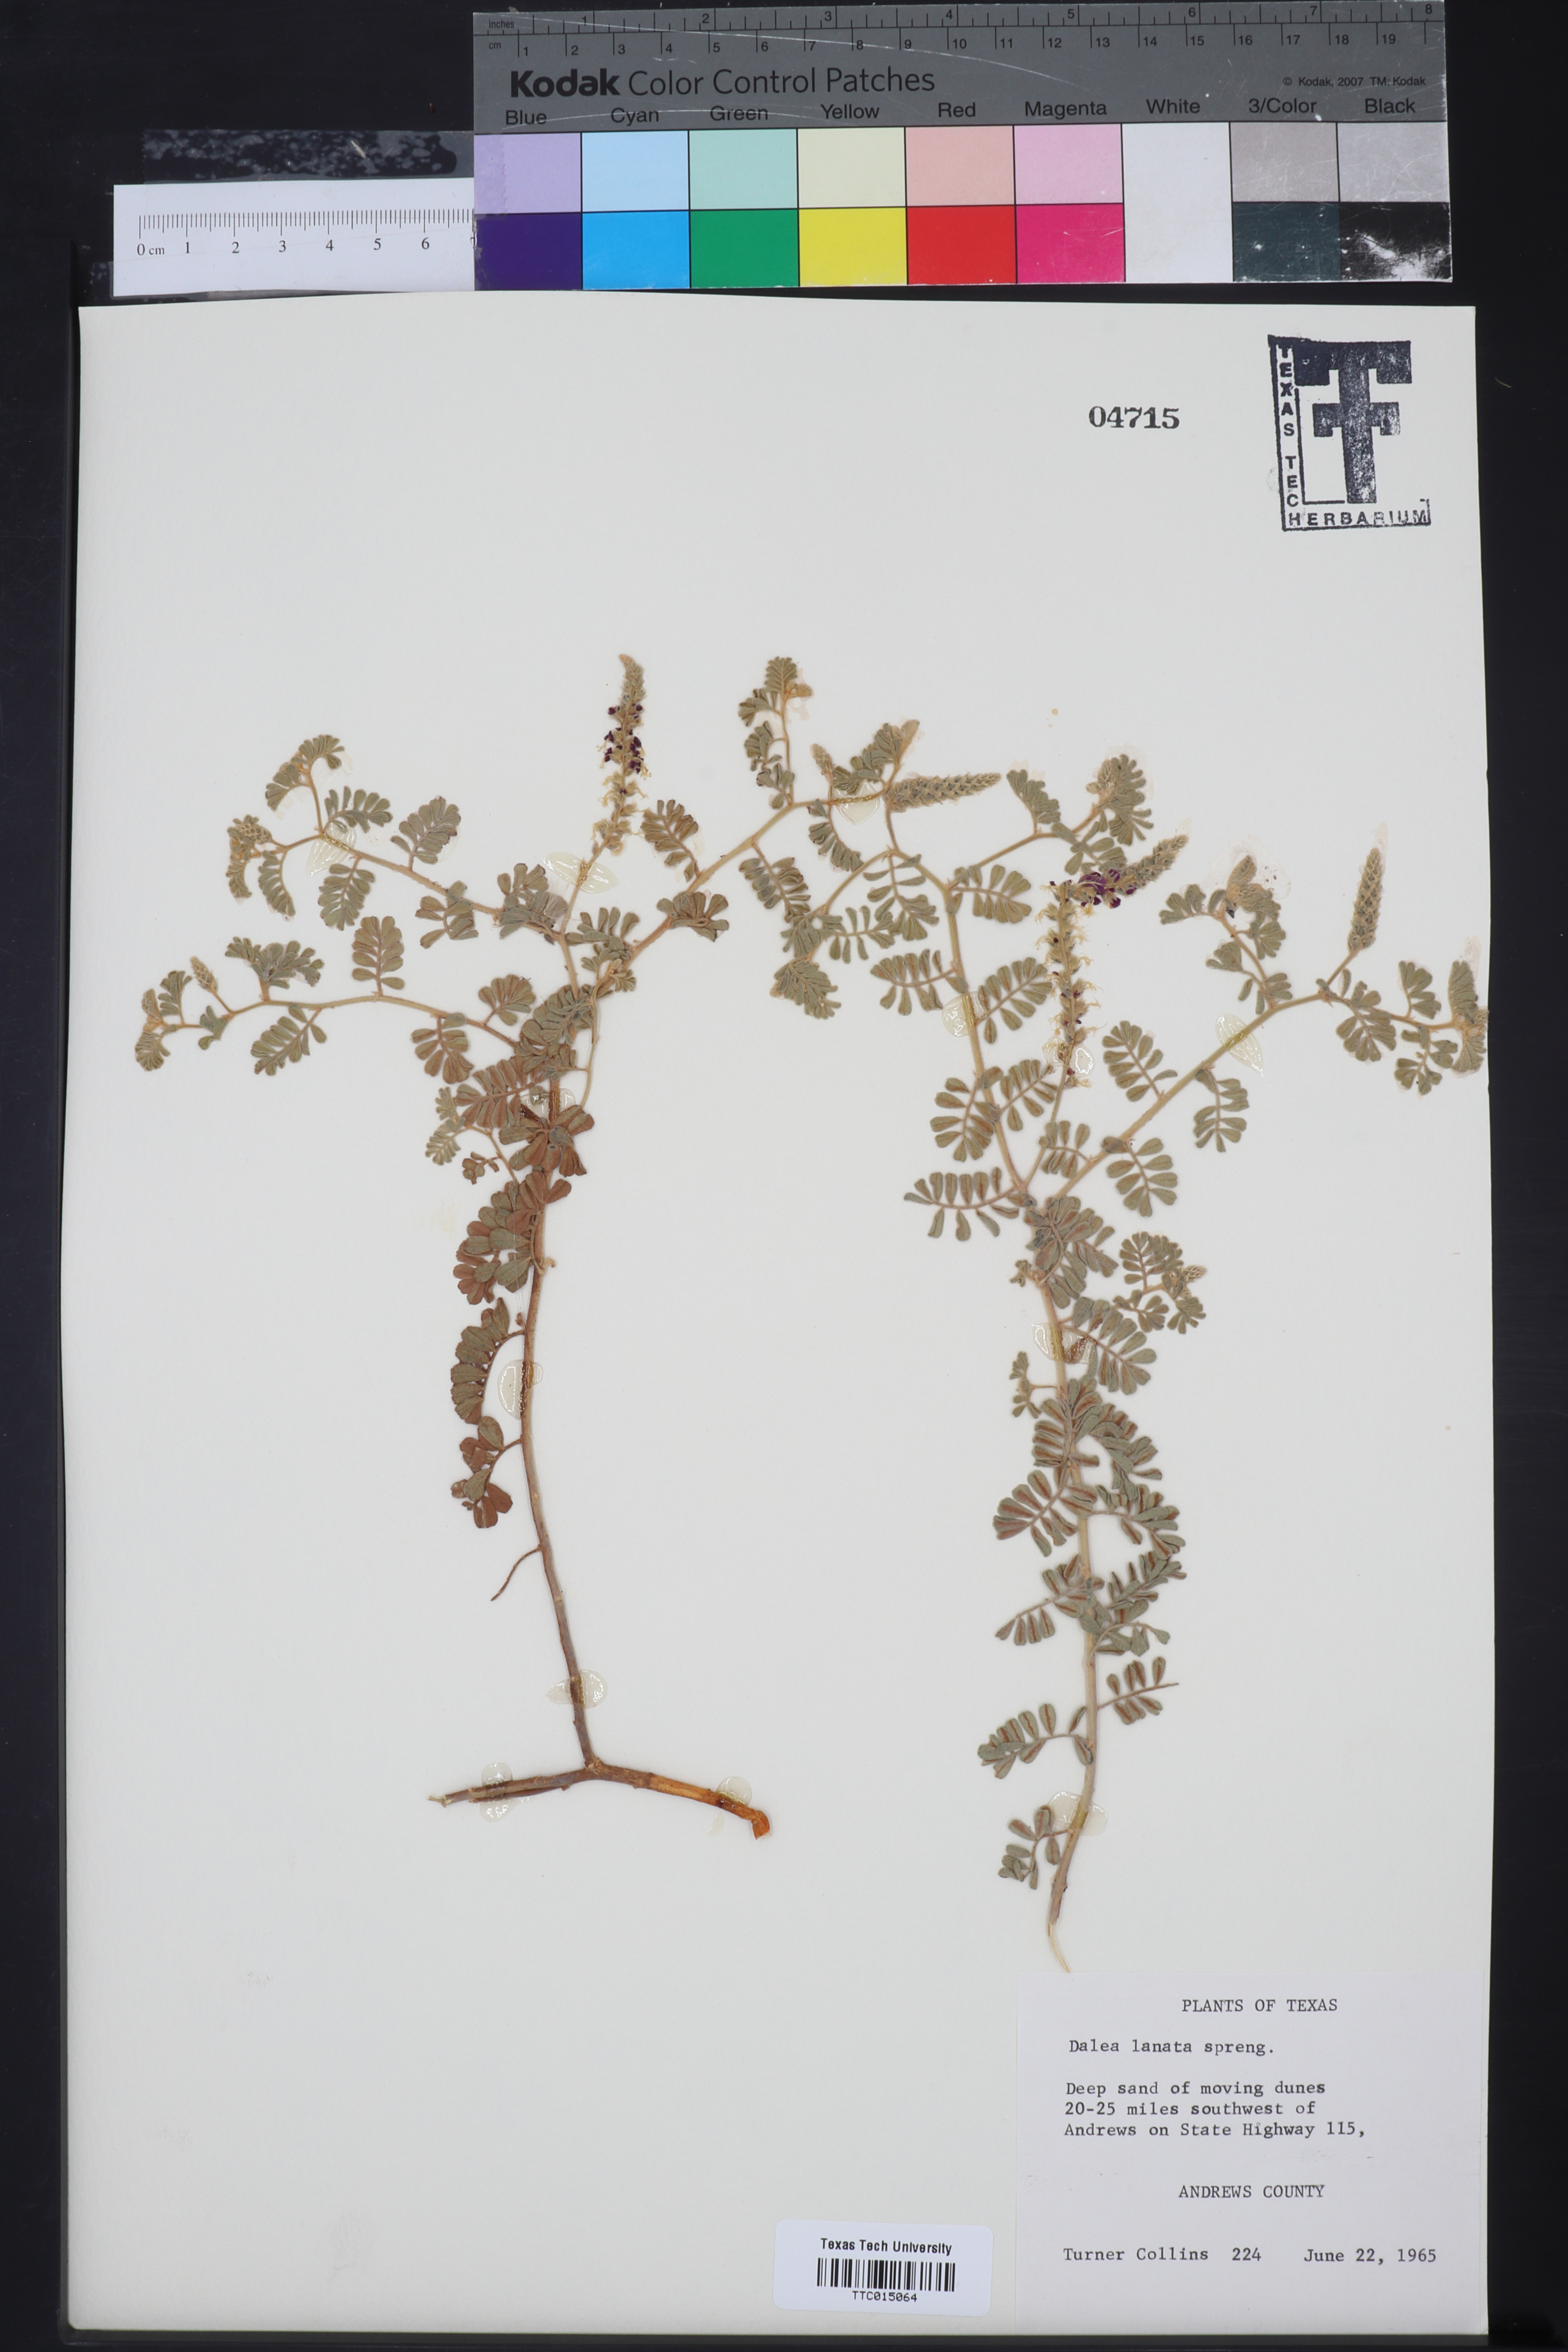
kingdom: Plantae
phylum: Tracheophyta
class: Magnoliopsida
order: Fabales
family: Fabaceae
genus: Dalea
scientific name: Dalea lanata
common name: Woolly dalea
